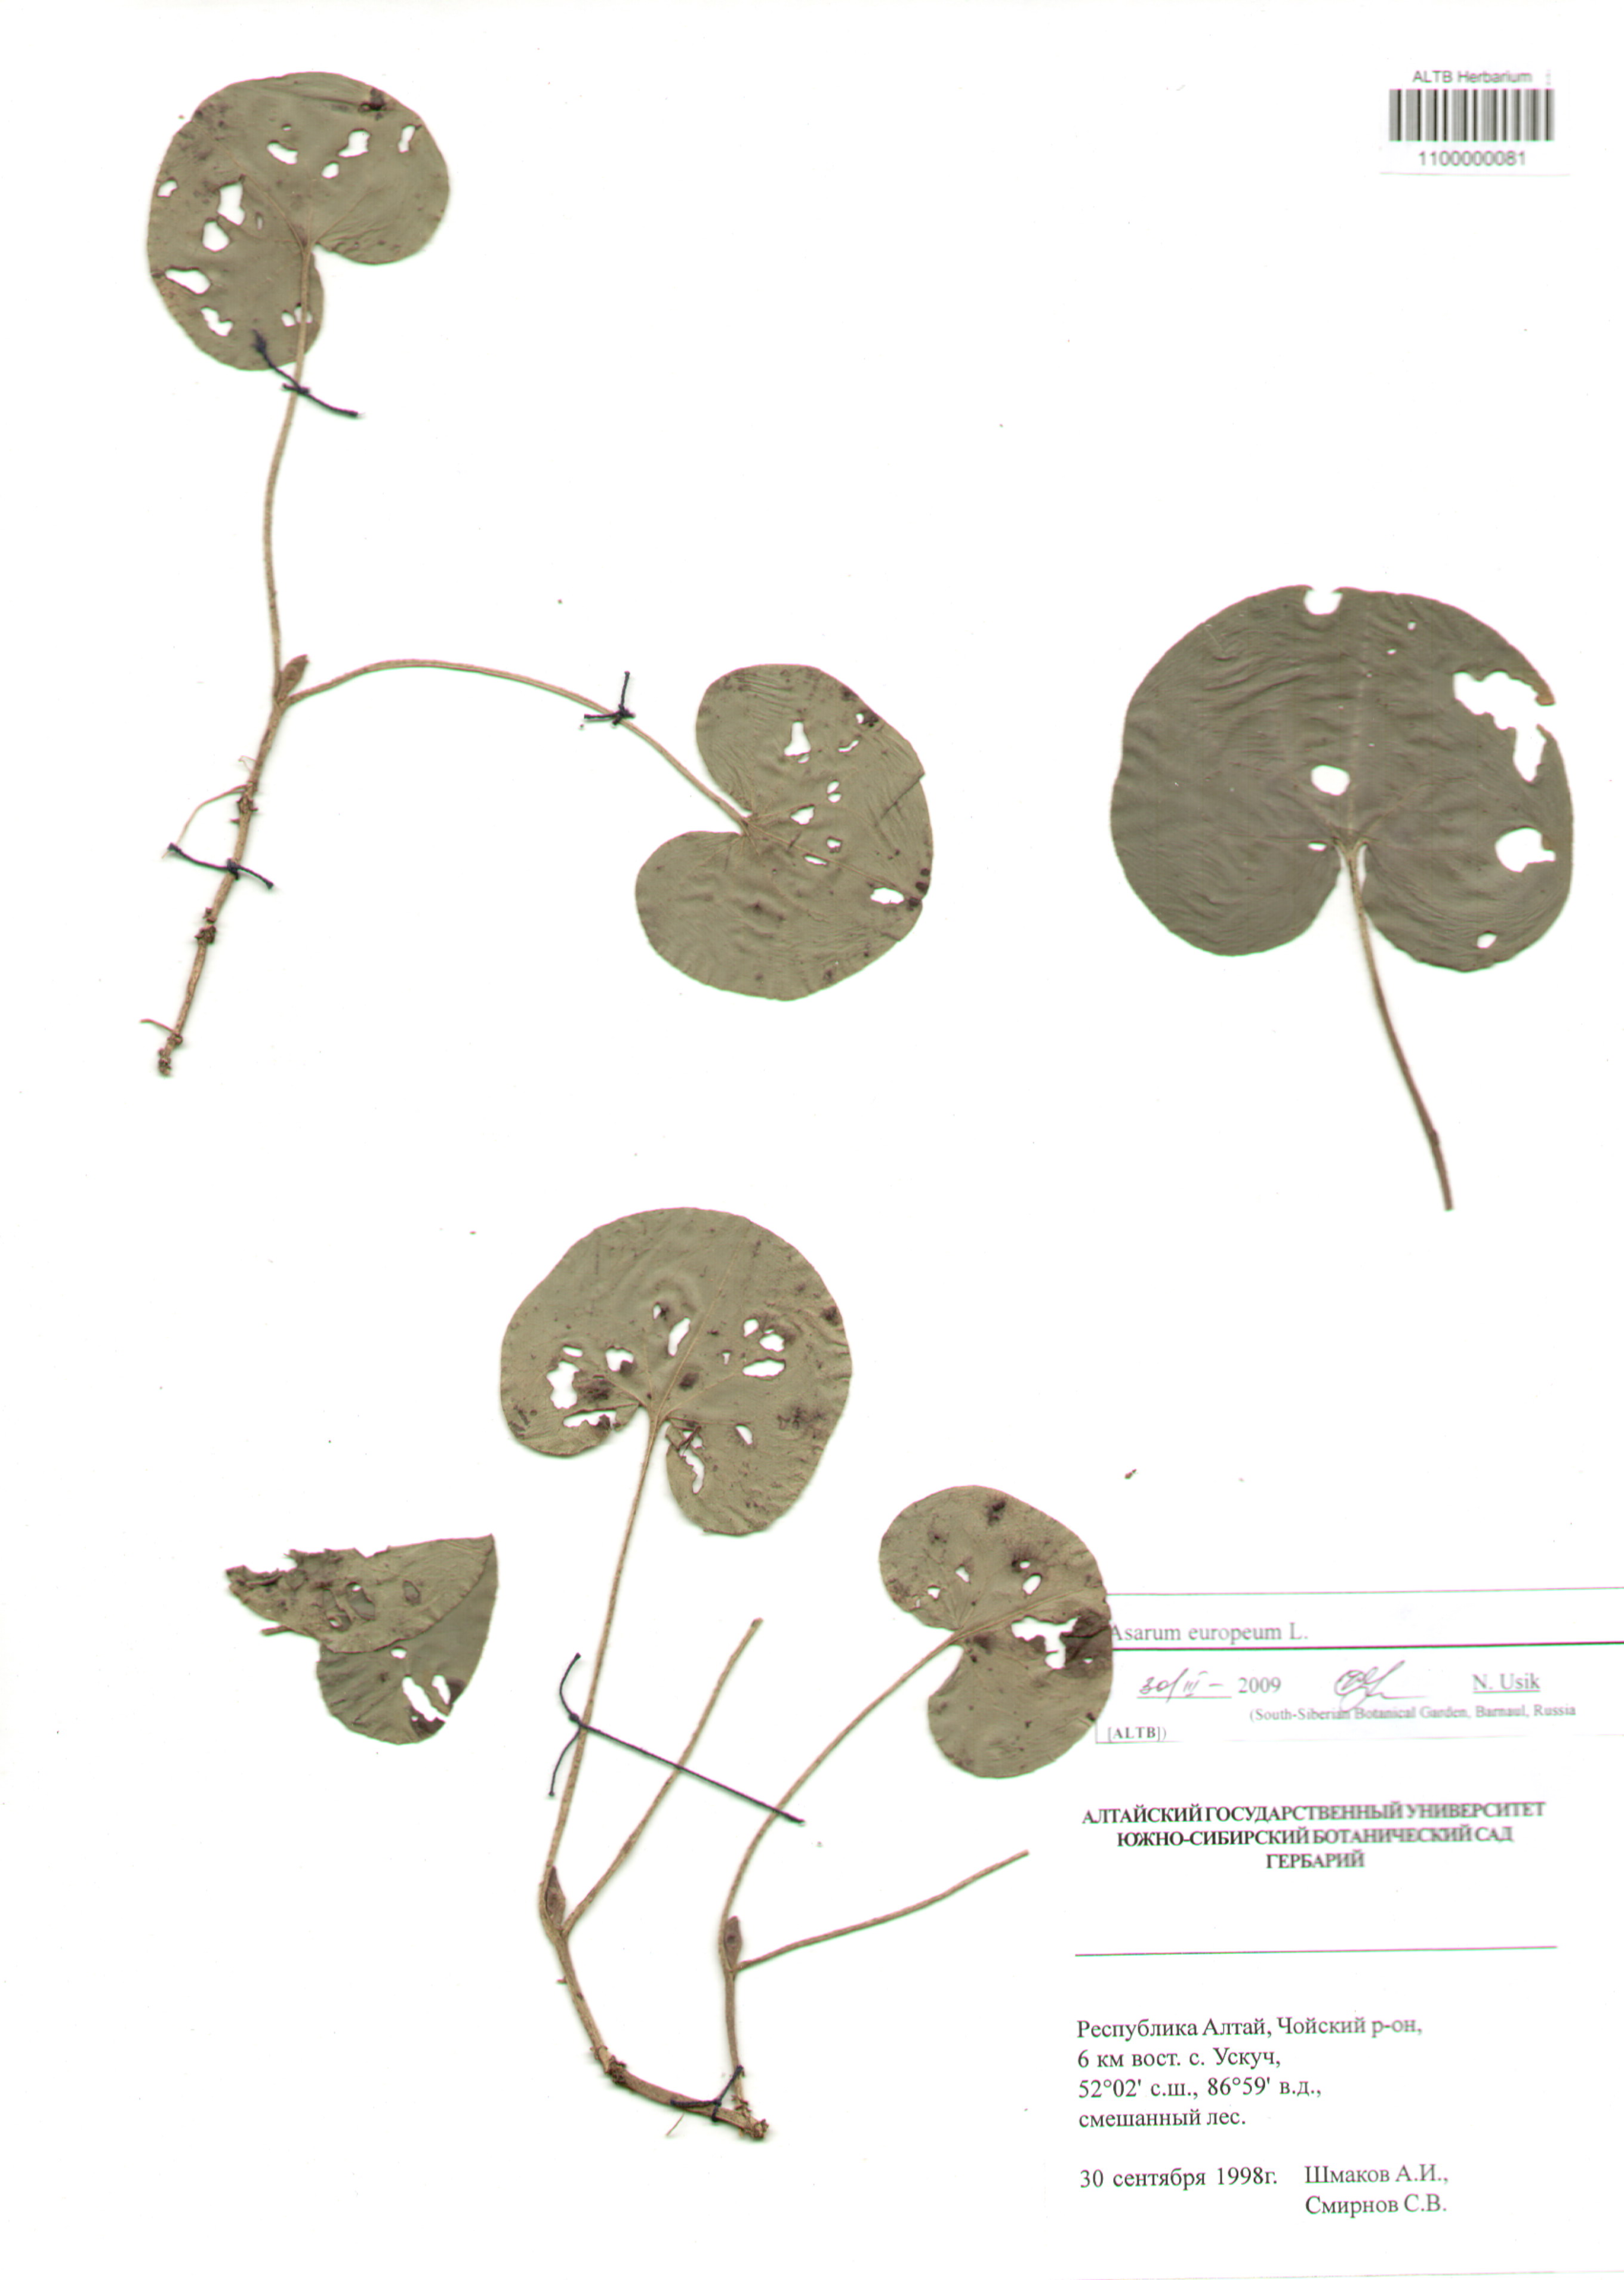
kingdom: Plantae
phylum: Tracheophyta
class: Magnoliopsida
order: Piperales
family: Aristolochiaceae
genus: Asarum
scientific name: Asarum europaeum
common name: Asarabacca
